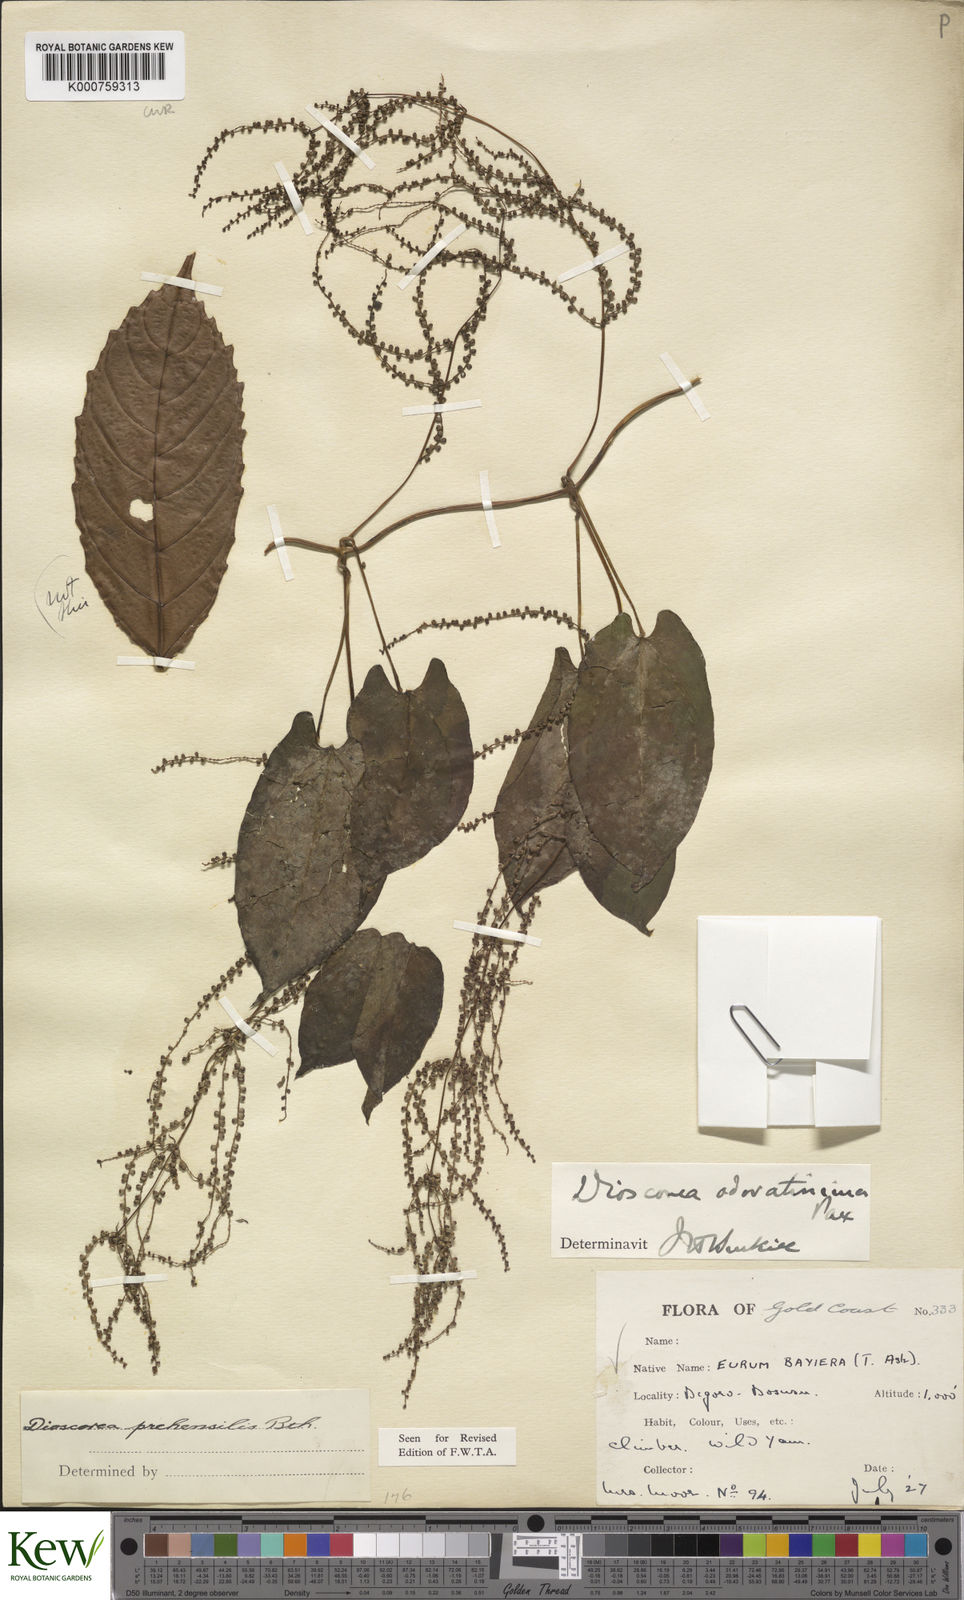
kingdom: Plantae
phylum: Tracheophyta
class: Liliopsida
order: Dioscoreales
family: Dioscoreaceae
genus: Dioscorea
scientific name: Dioscorea praehensilis
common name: Bush yam
